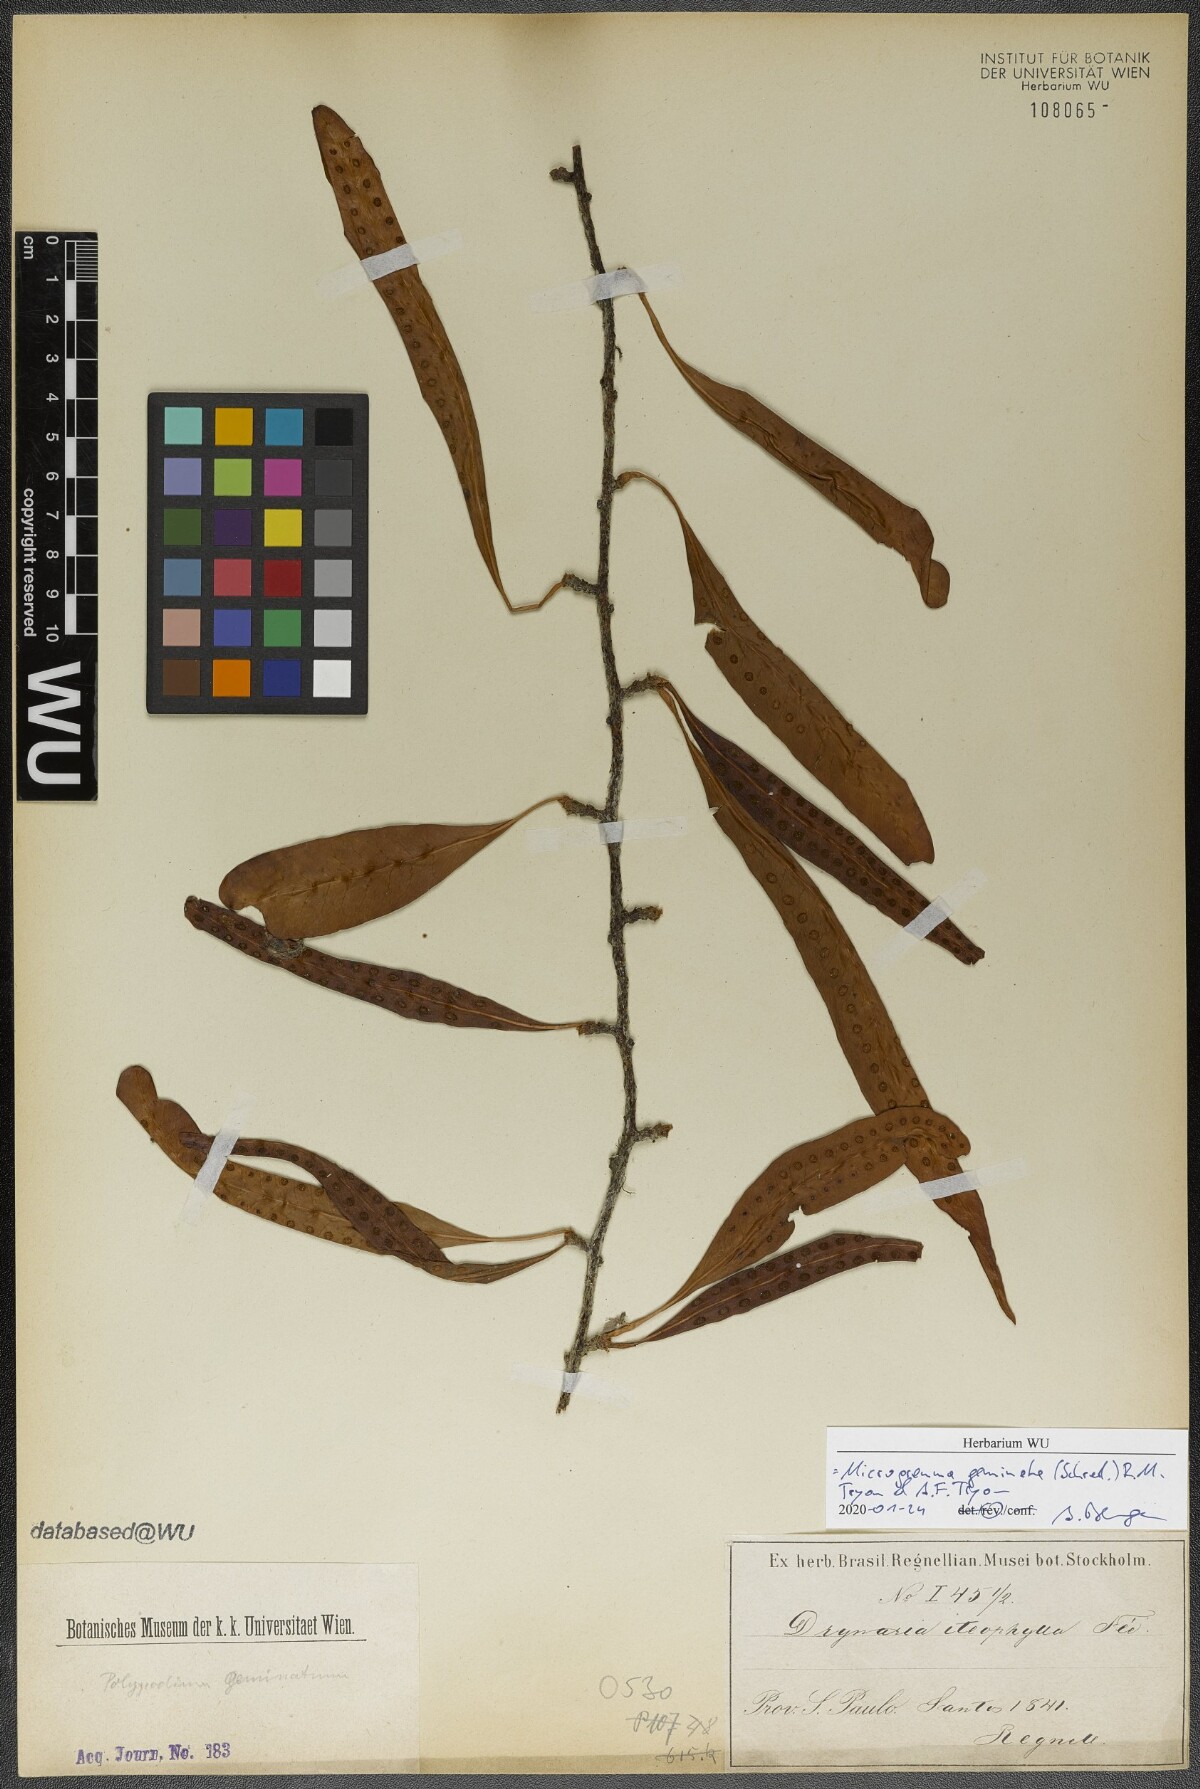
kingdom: Plantae
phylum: Tracheophyta
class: Polypodiopsida
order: Polypodiales
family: Polypodiaceae
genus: Microgramma
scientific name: Microgramma geminata
